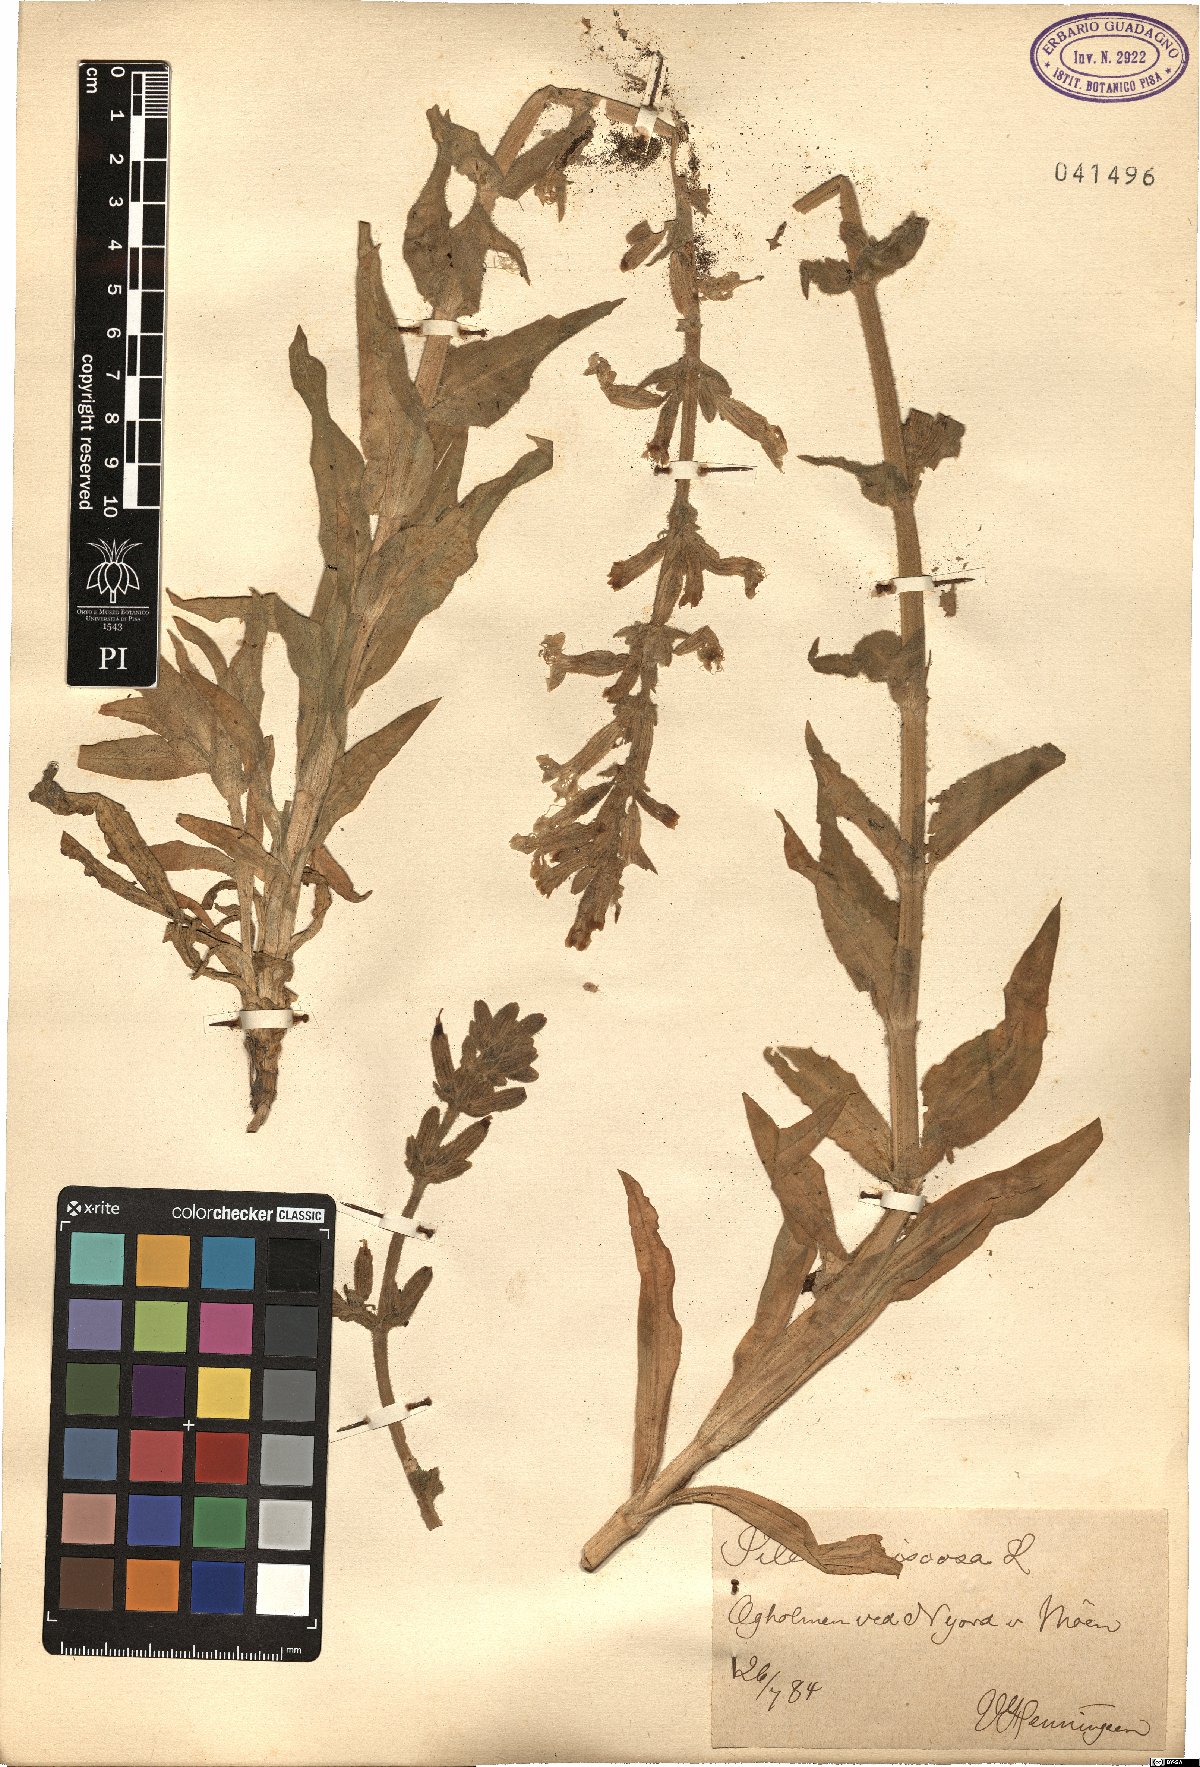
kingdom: Plantae
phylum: Tracheophyta
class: Magnoliopsida
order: Caryophyllales
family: Caryophyllaceae
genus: Silene
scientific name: Silene viscosa
